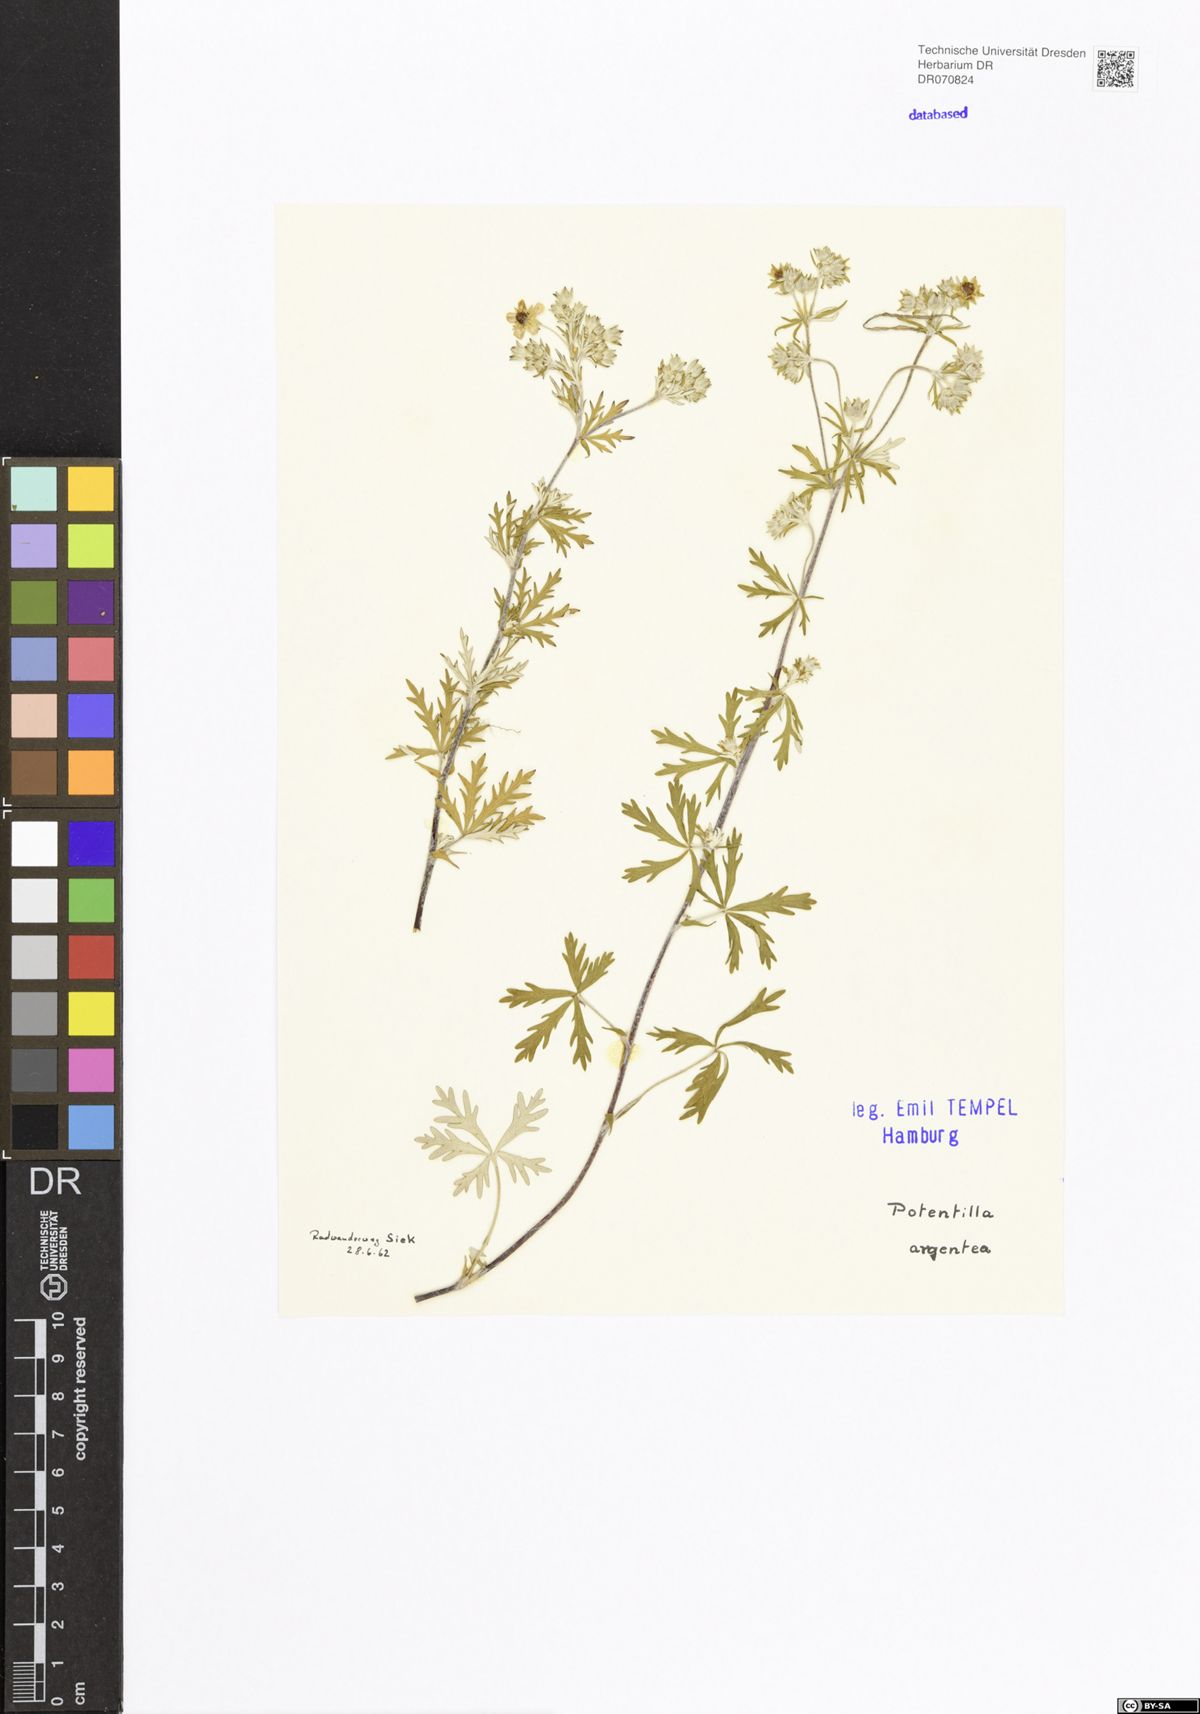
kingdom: Plantae
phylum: Tracheophyta
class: Magnoliopsida
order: Rosales
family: Rosaceae
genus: Potentilla
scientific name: Potentilla argentea
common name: Hoary cinquefoil
